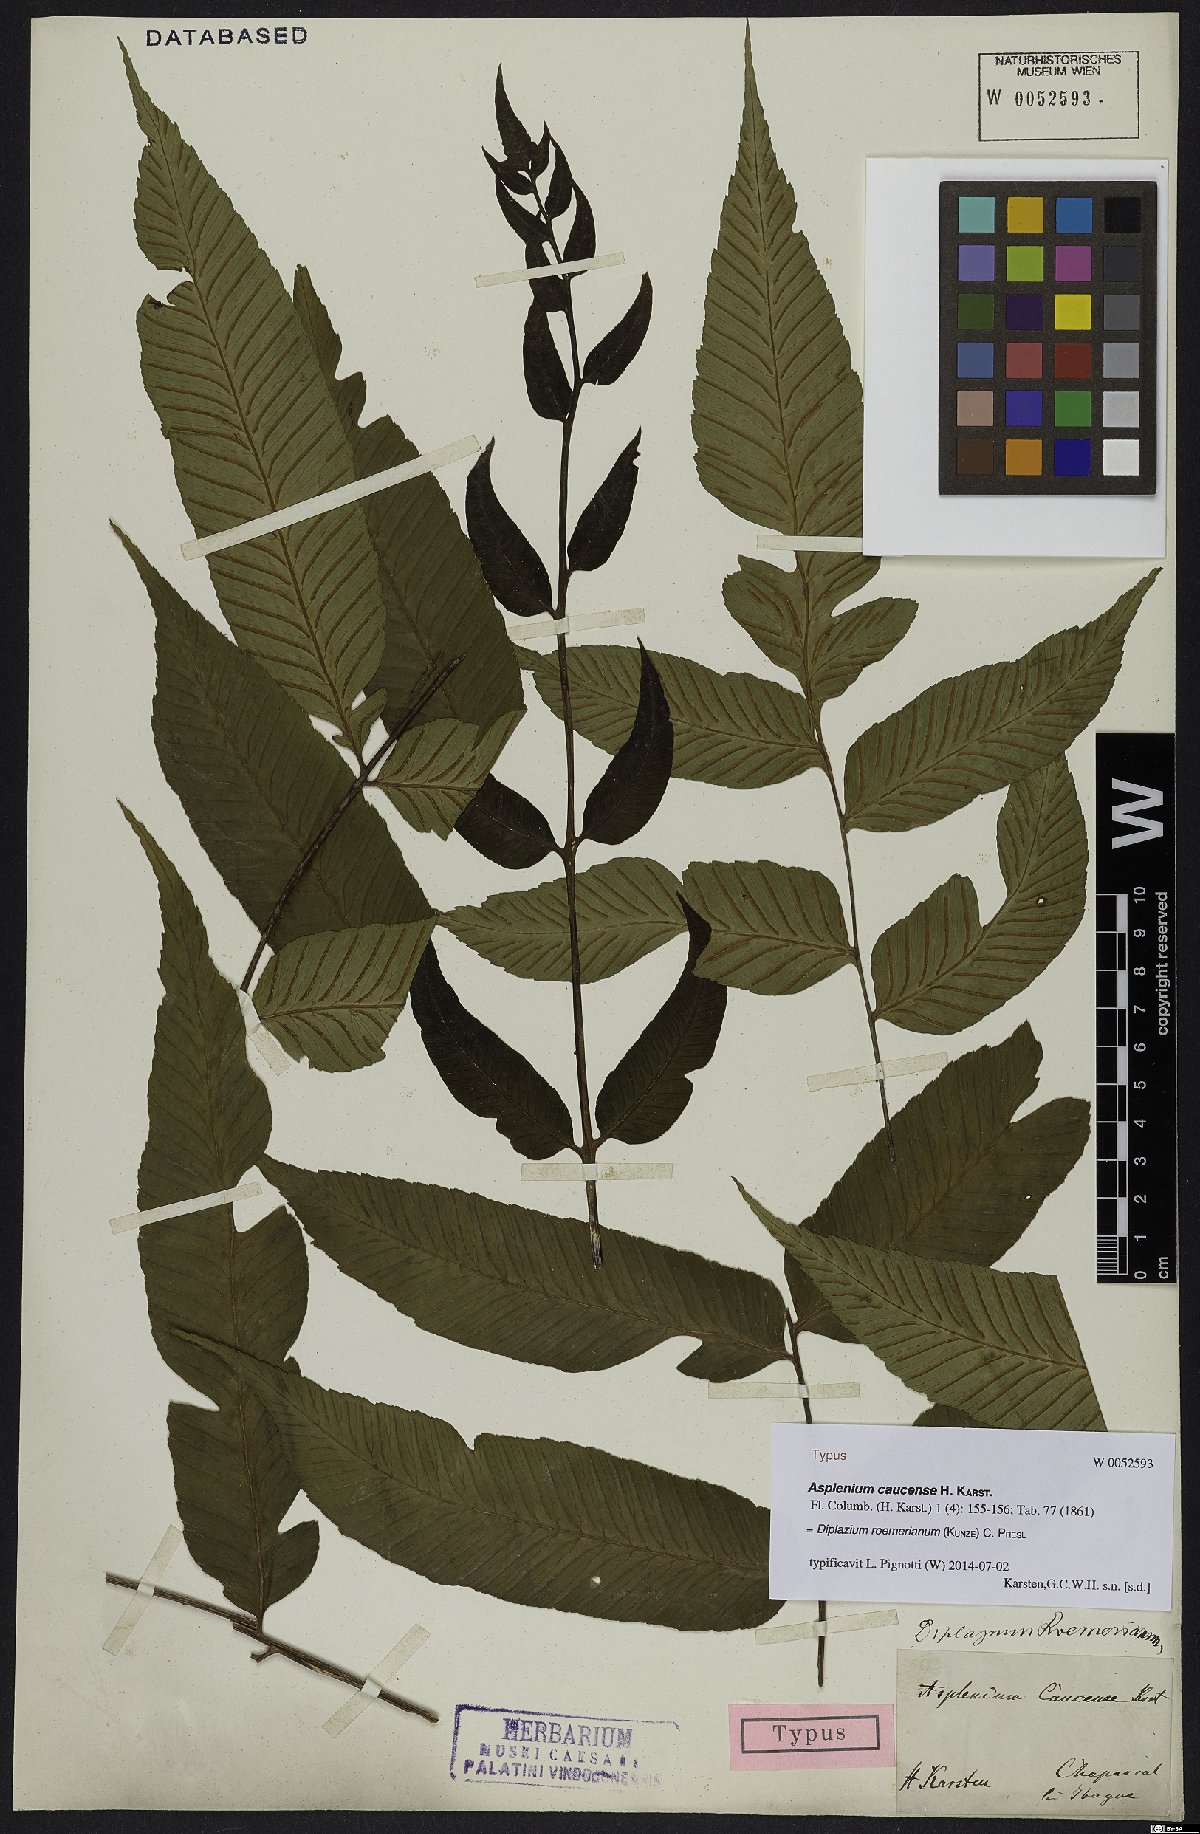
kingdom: Plantae
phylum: Tracheophyta
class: Polypodiopsida
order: Polypodiales
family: Athyriaceae
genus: Diplazium
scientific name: Diplazium roemerianum
